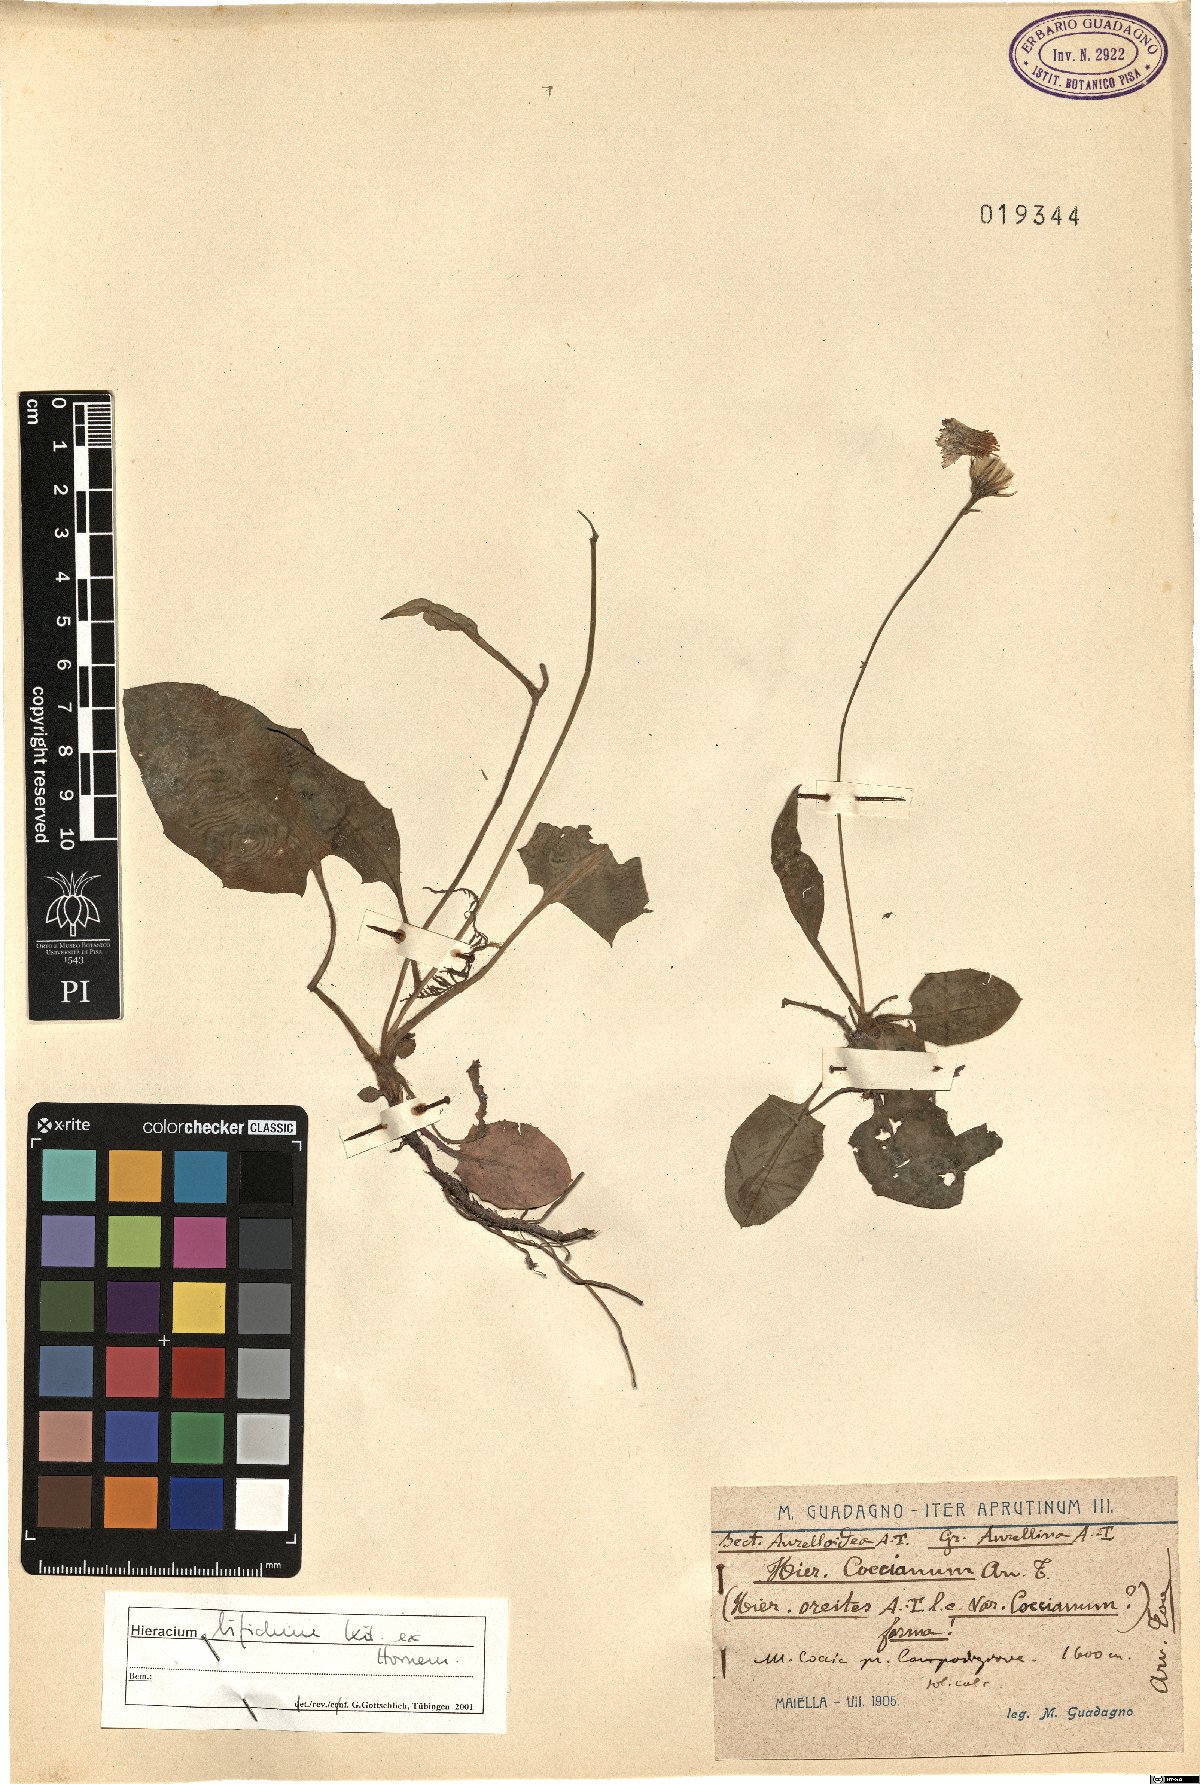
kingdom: Plantae
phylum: Tracheophyta
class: Magnoliopsida
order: Asterales
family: Asteraceae
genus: Hieracium
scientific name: Hieracium bifidum
